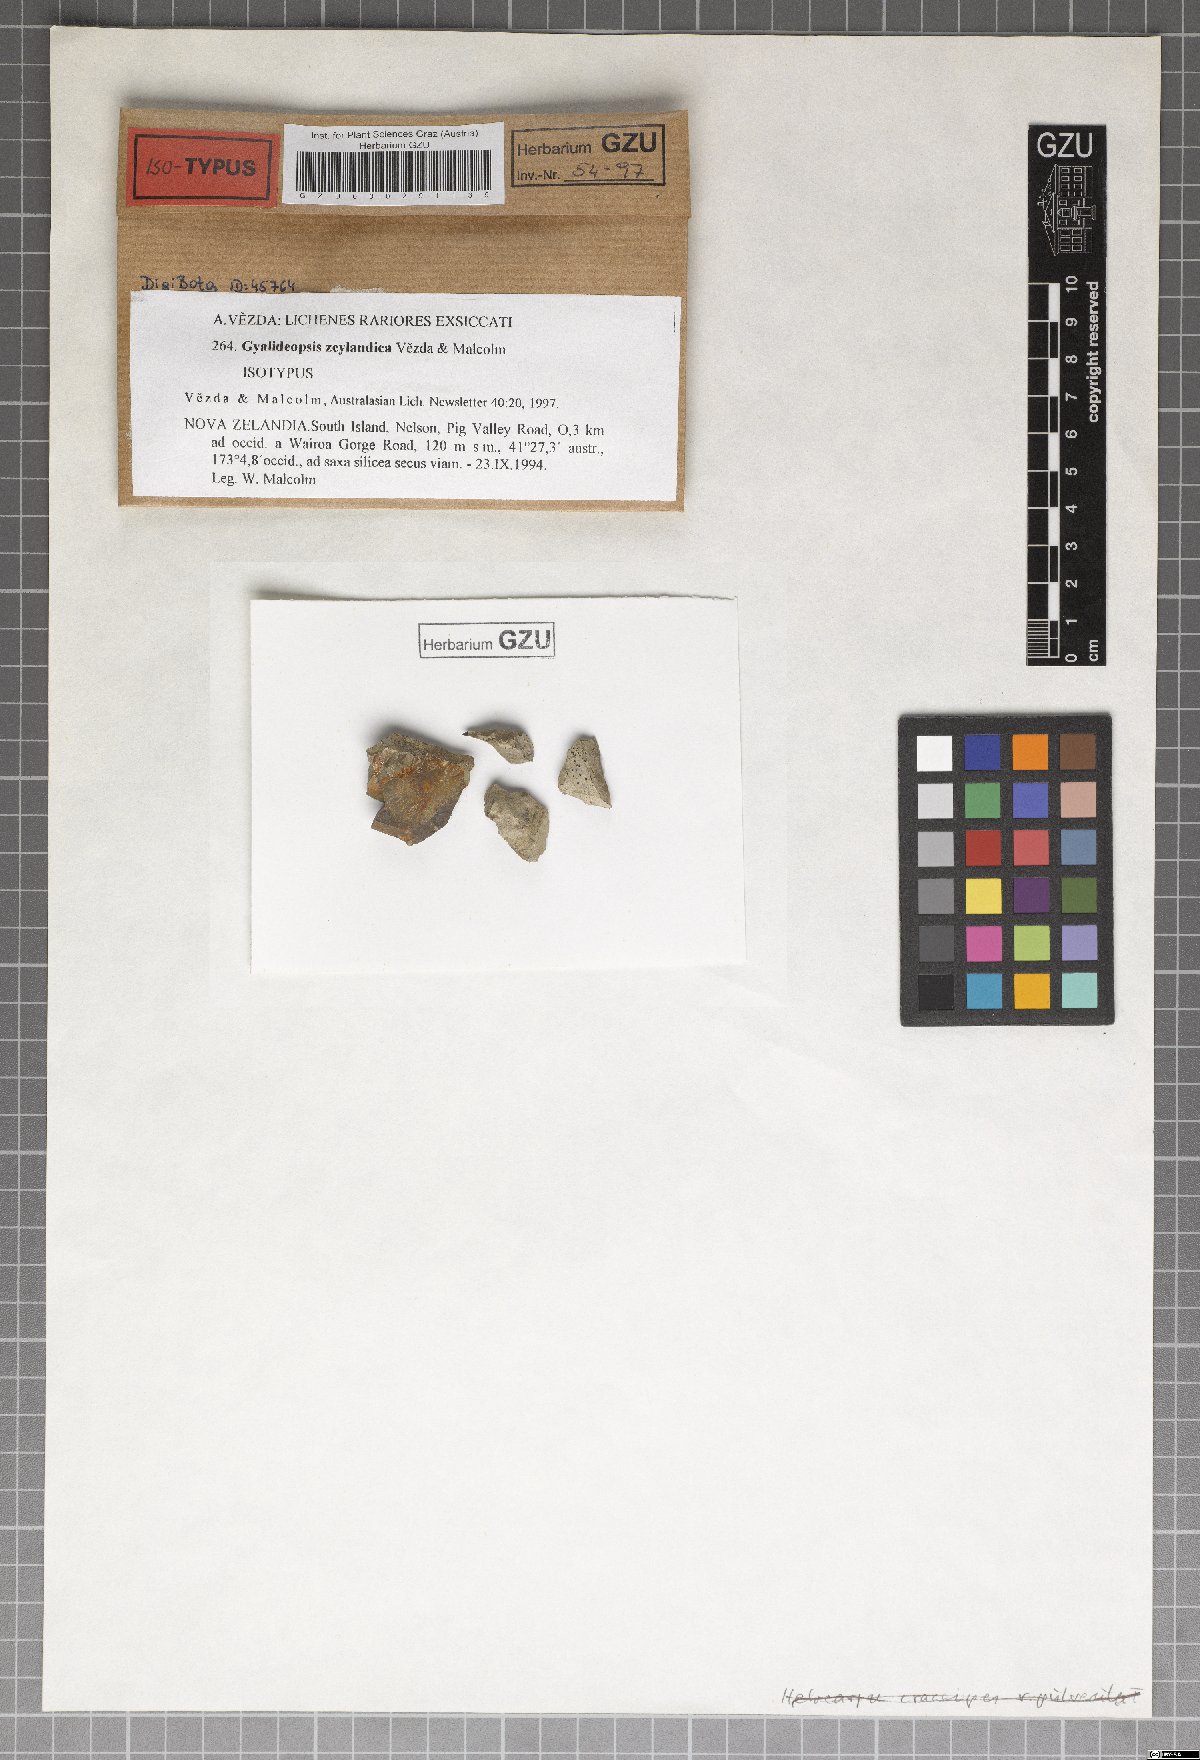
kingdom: Fungi
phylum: Ascomycota
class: Lecanoromycetes
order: Ostropales
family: Gomphillaceae
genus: Lithogyalideopsis
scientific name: Lithogyalideopsis zeylandica
